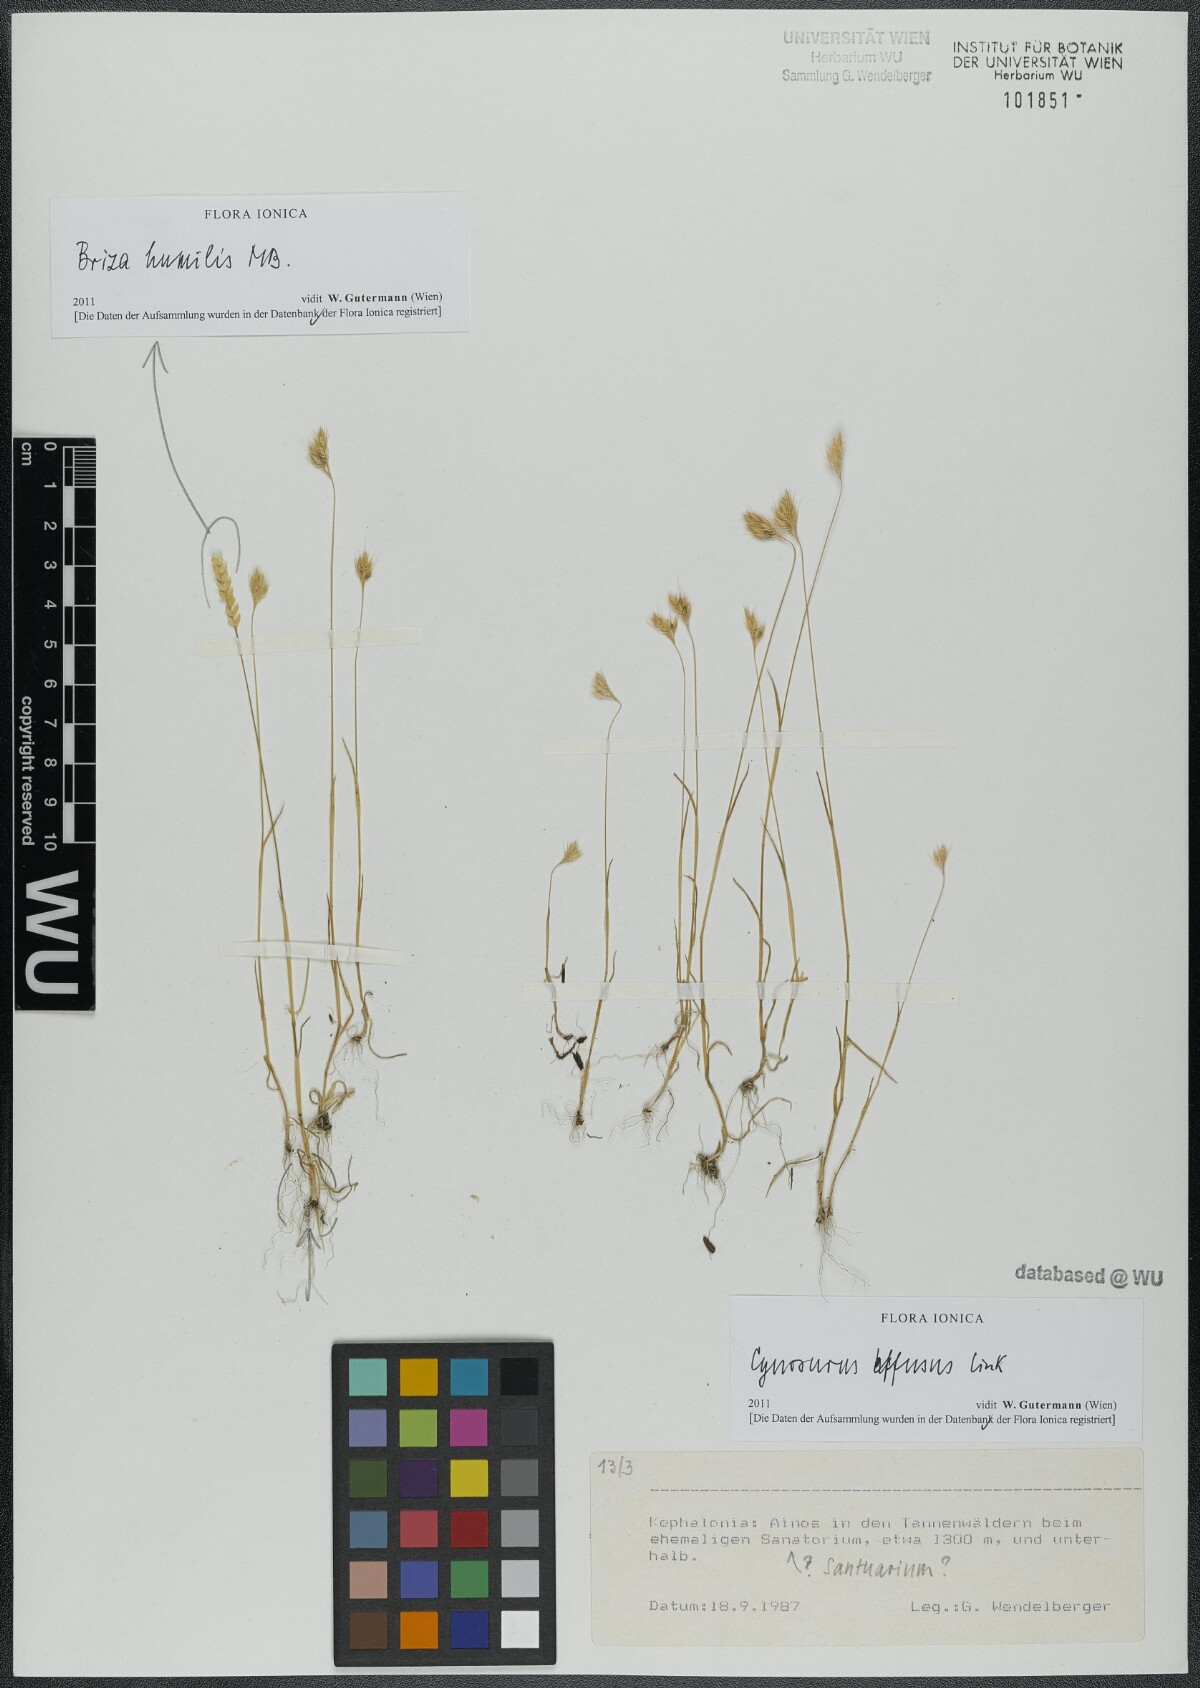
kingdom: Plantae
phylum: Tracheophyta
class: Liliopsida
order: Poales
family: Poaceae
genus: Cynosurus
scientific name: Cynosurus effusus
